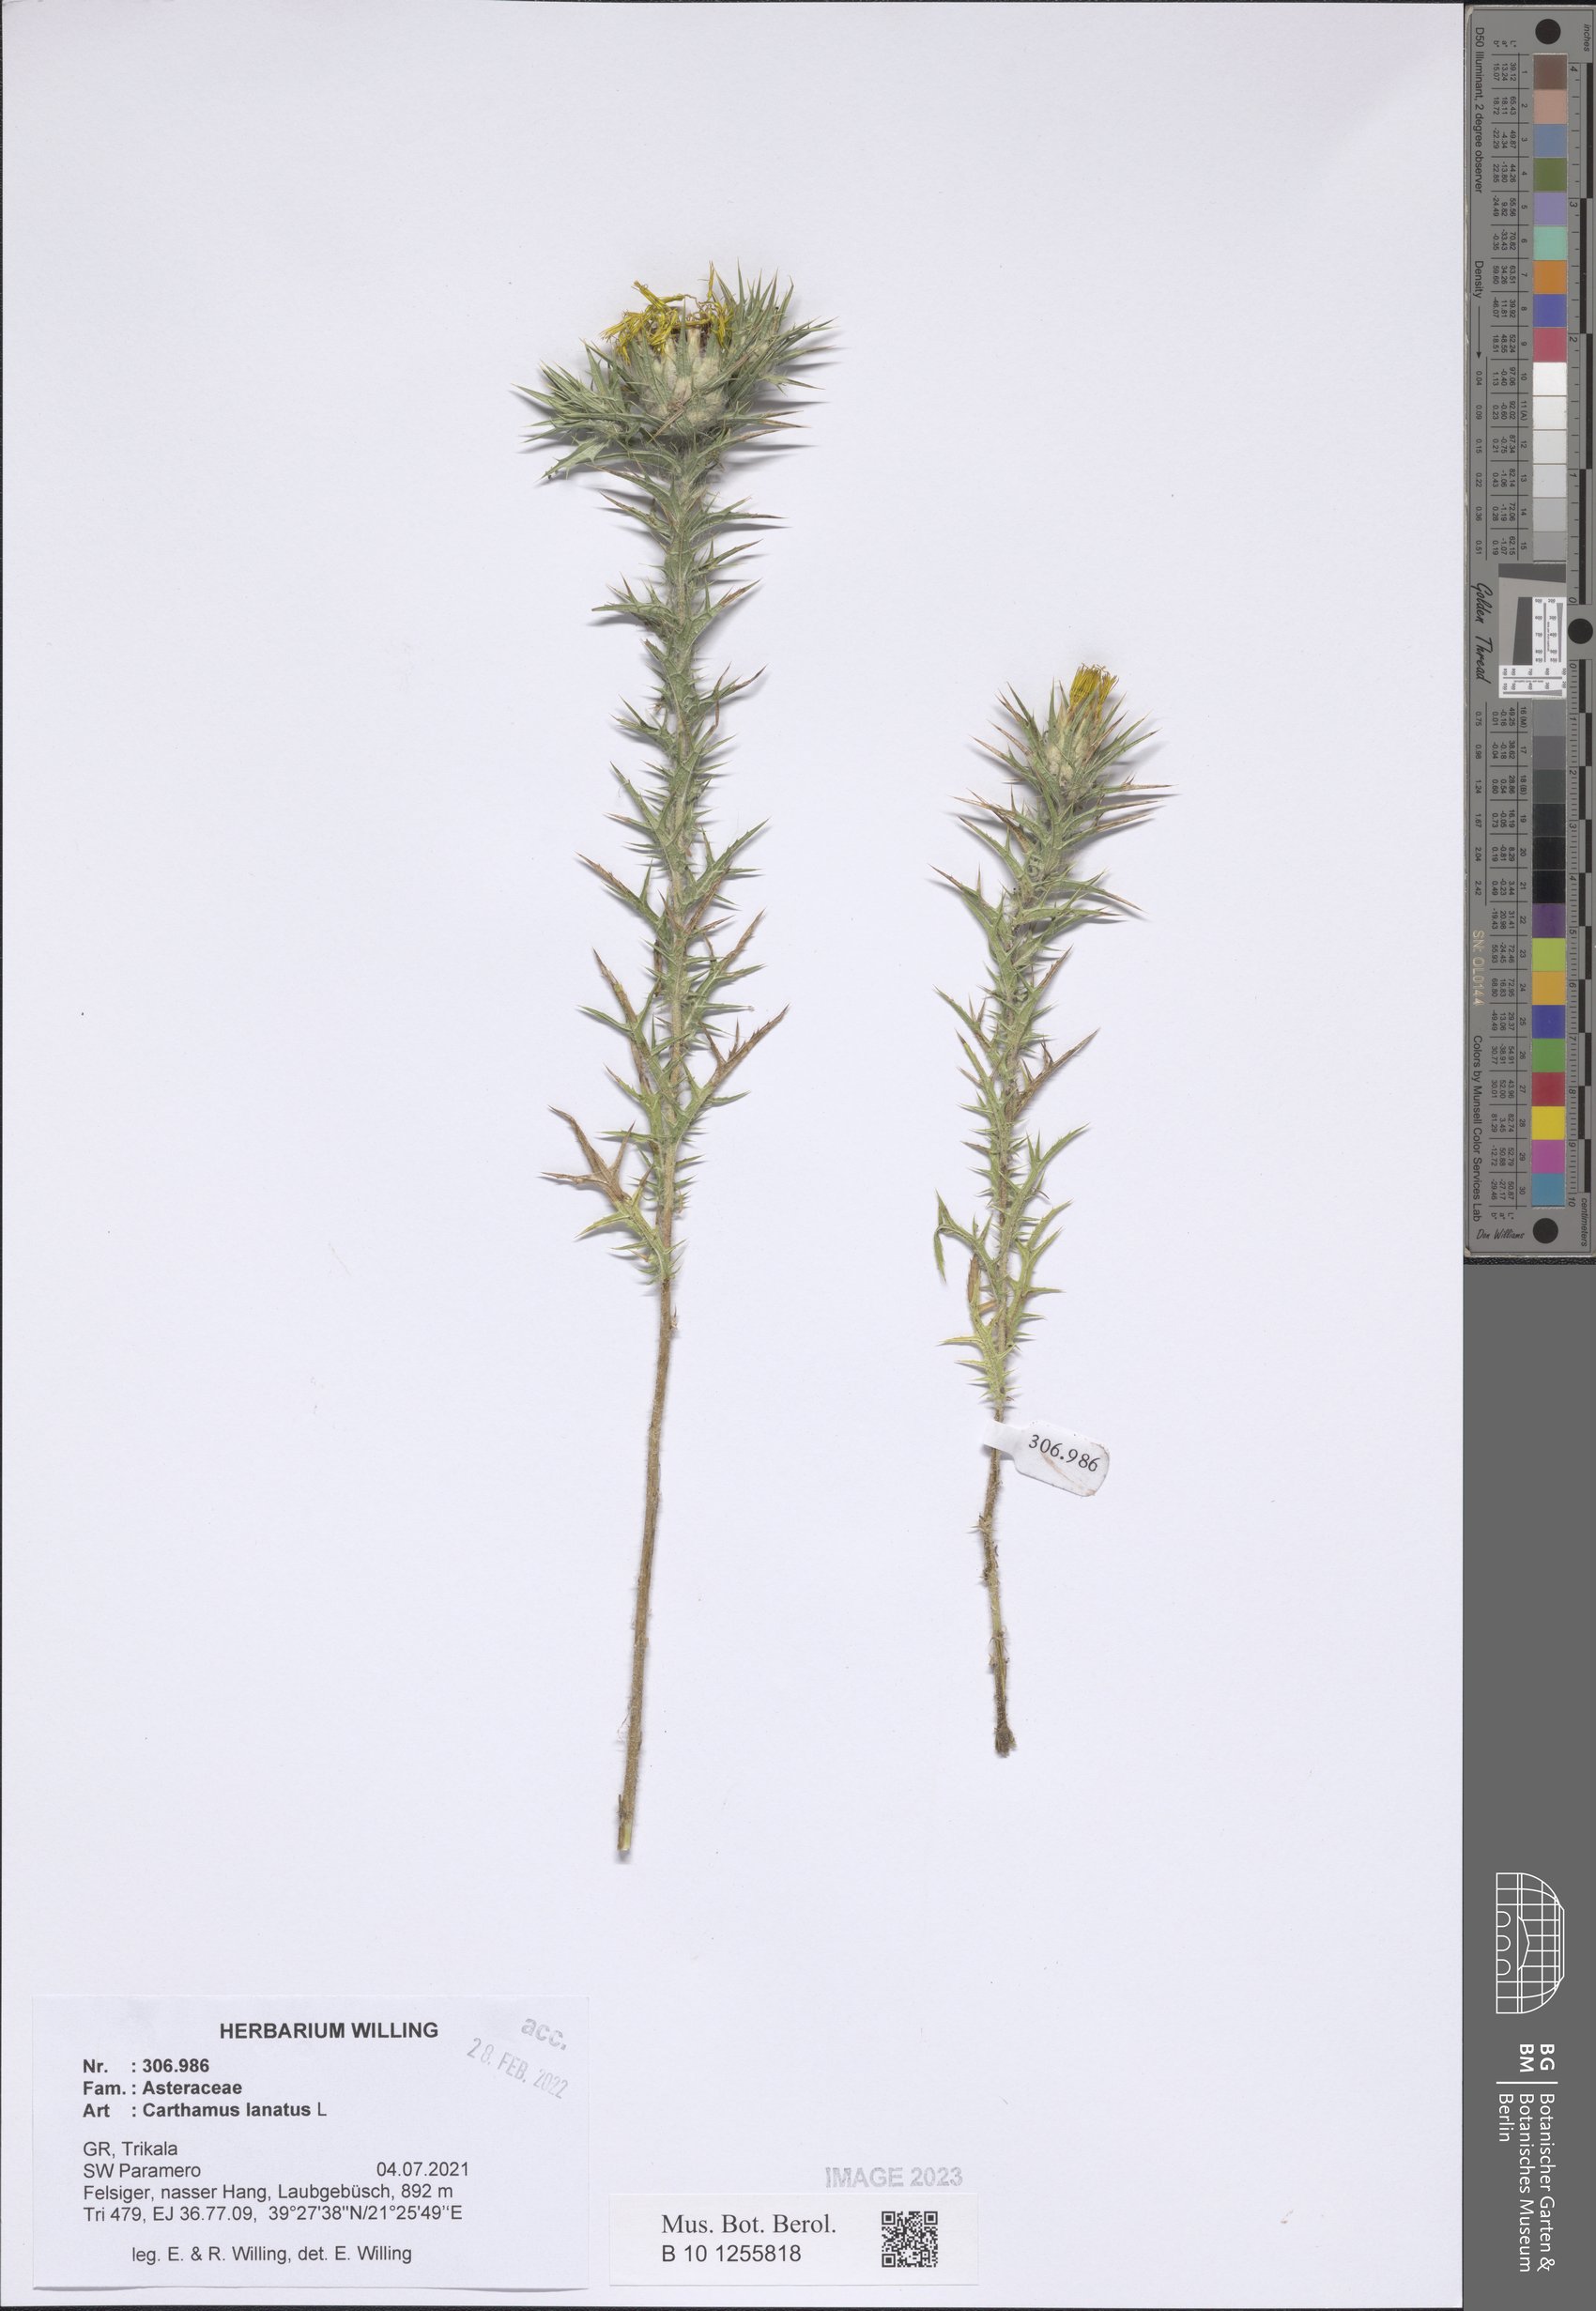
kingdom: Plantae
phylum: Tracheophyta
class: Magnoliopsida
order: Asterales
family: Asteraceae
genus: Carthamus
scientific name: Carthamus lanatus
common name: Downy safflower
